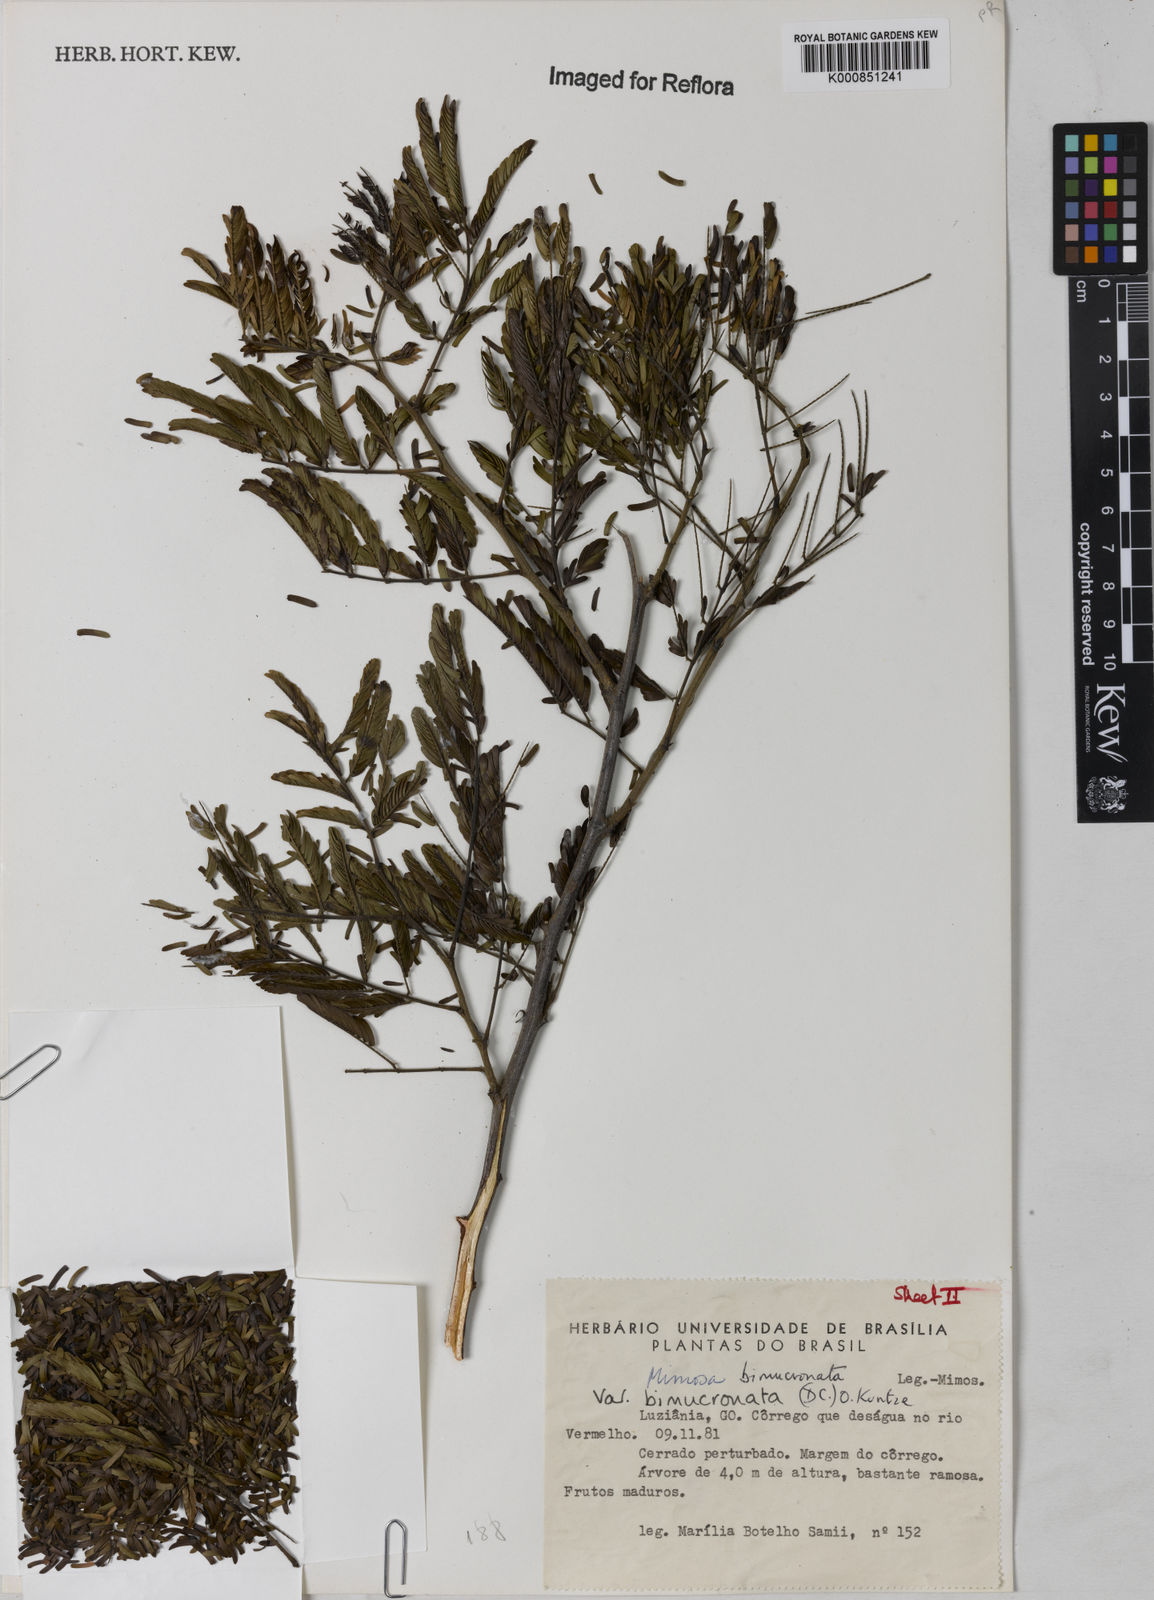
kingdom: Plantae
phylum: Tracheophyta
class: Magnoliopsida
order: Fabales
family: Fabaceae
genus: Mimosa
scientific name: Mimosa bimucronata
